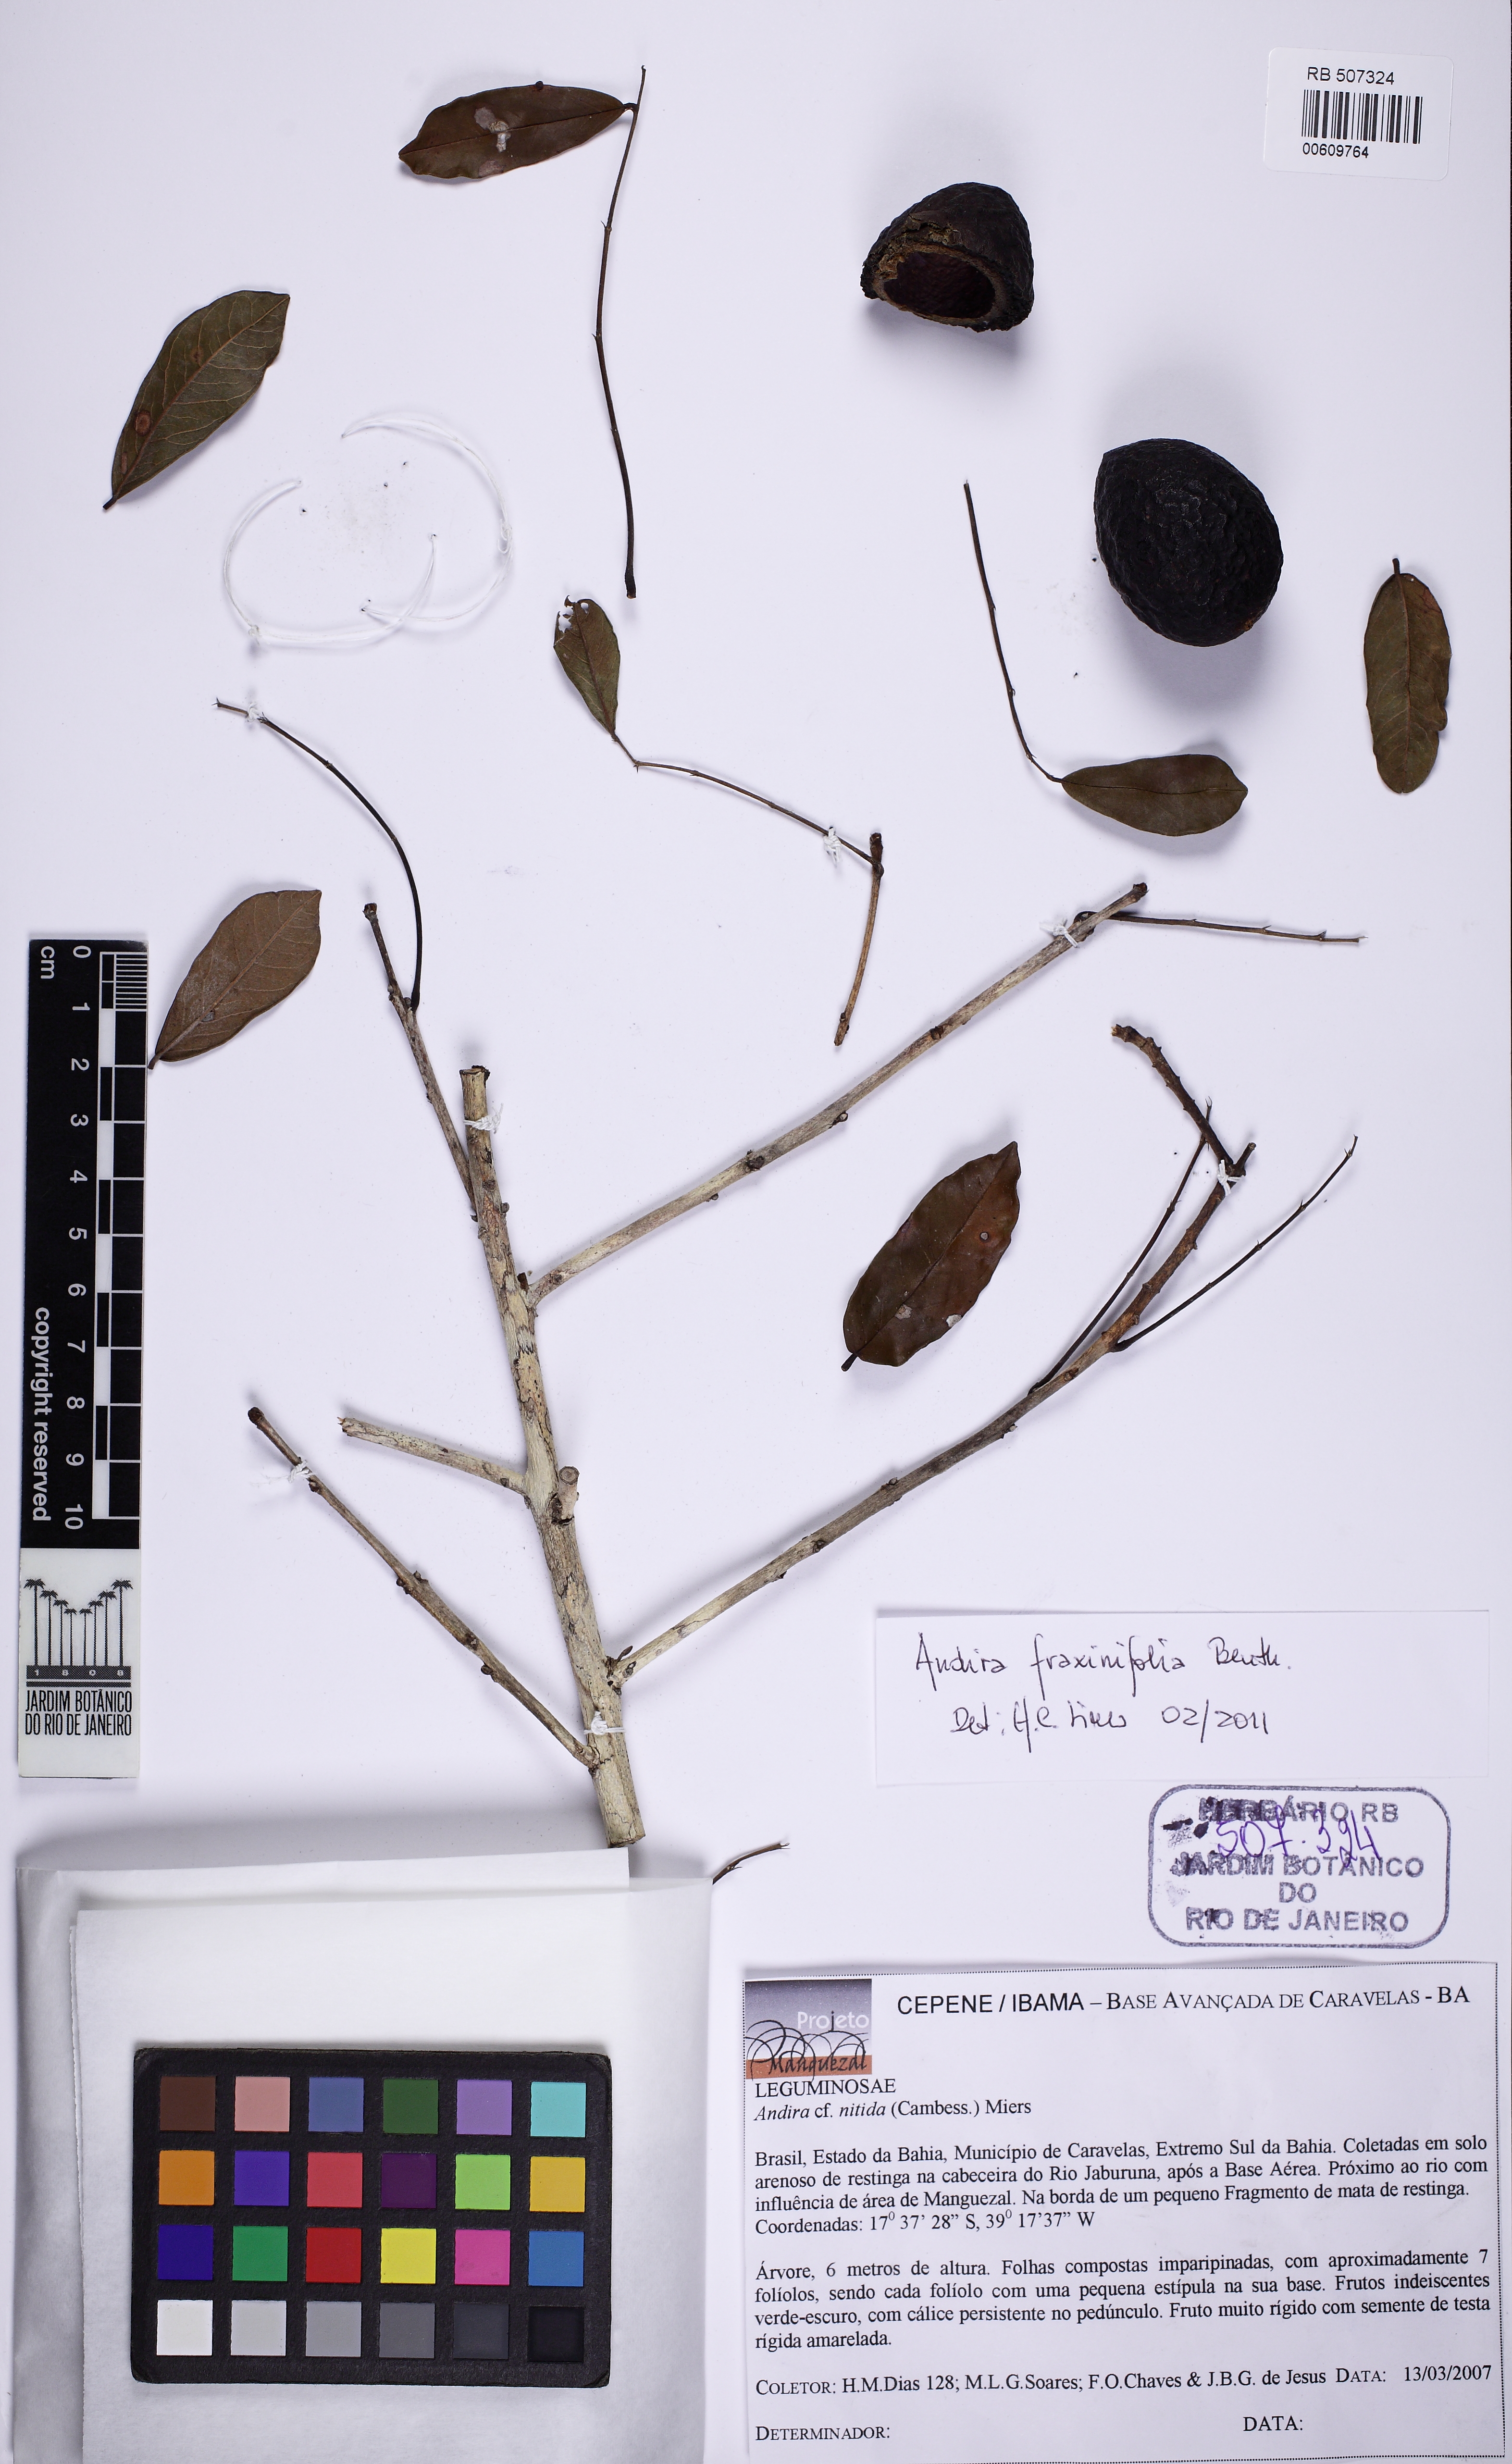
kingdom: Plantae
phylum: Tracheophyta
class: Magnoliopsida
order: Fabales
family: Fabaceae
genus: Andira
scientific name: Andira fraxinifolia
